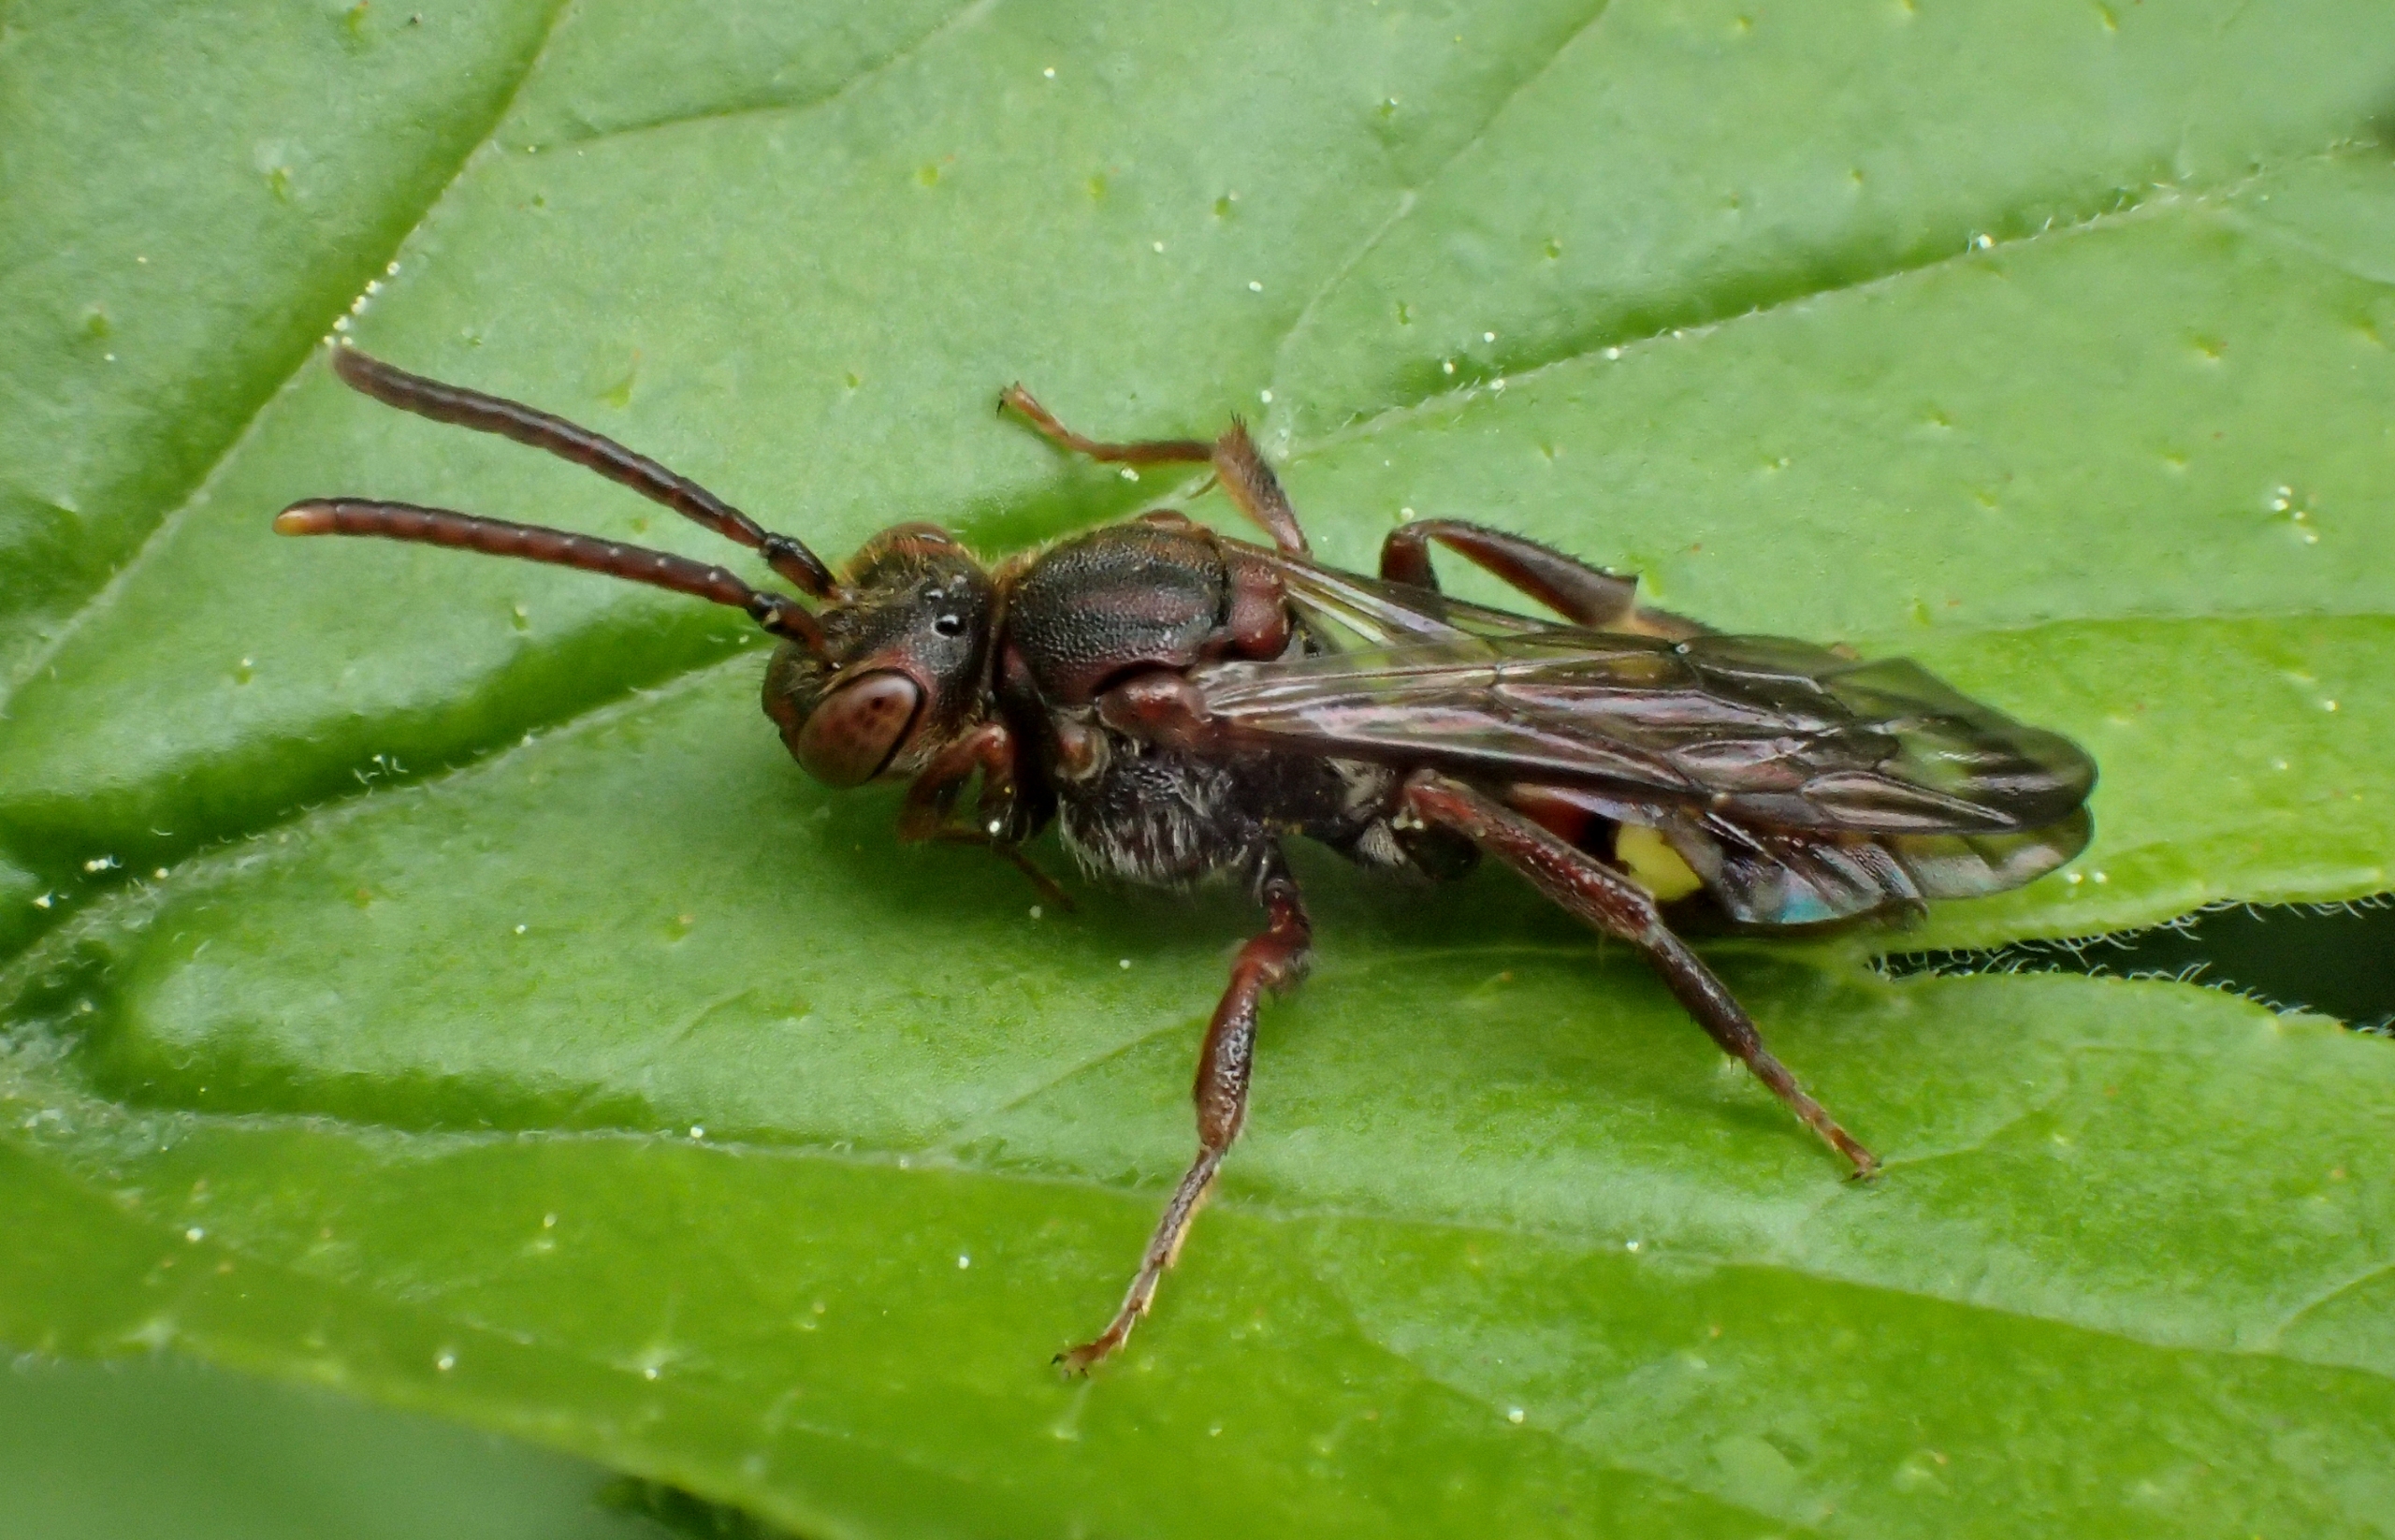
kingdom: Animalia
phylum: Arthropoda
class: Insecta
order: Hymenoptera
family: Apidae
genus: Nomada
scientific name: Nomada
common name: Hvepsebier
